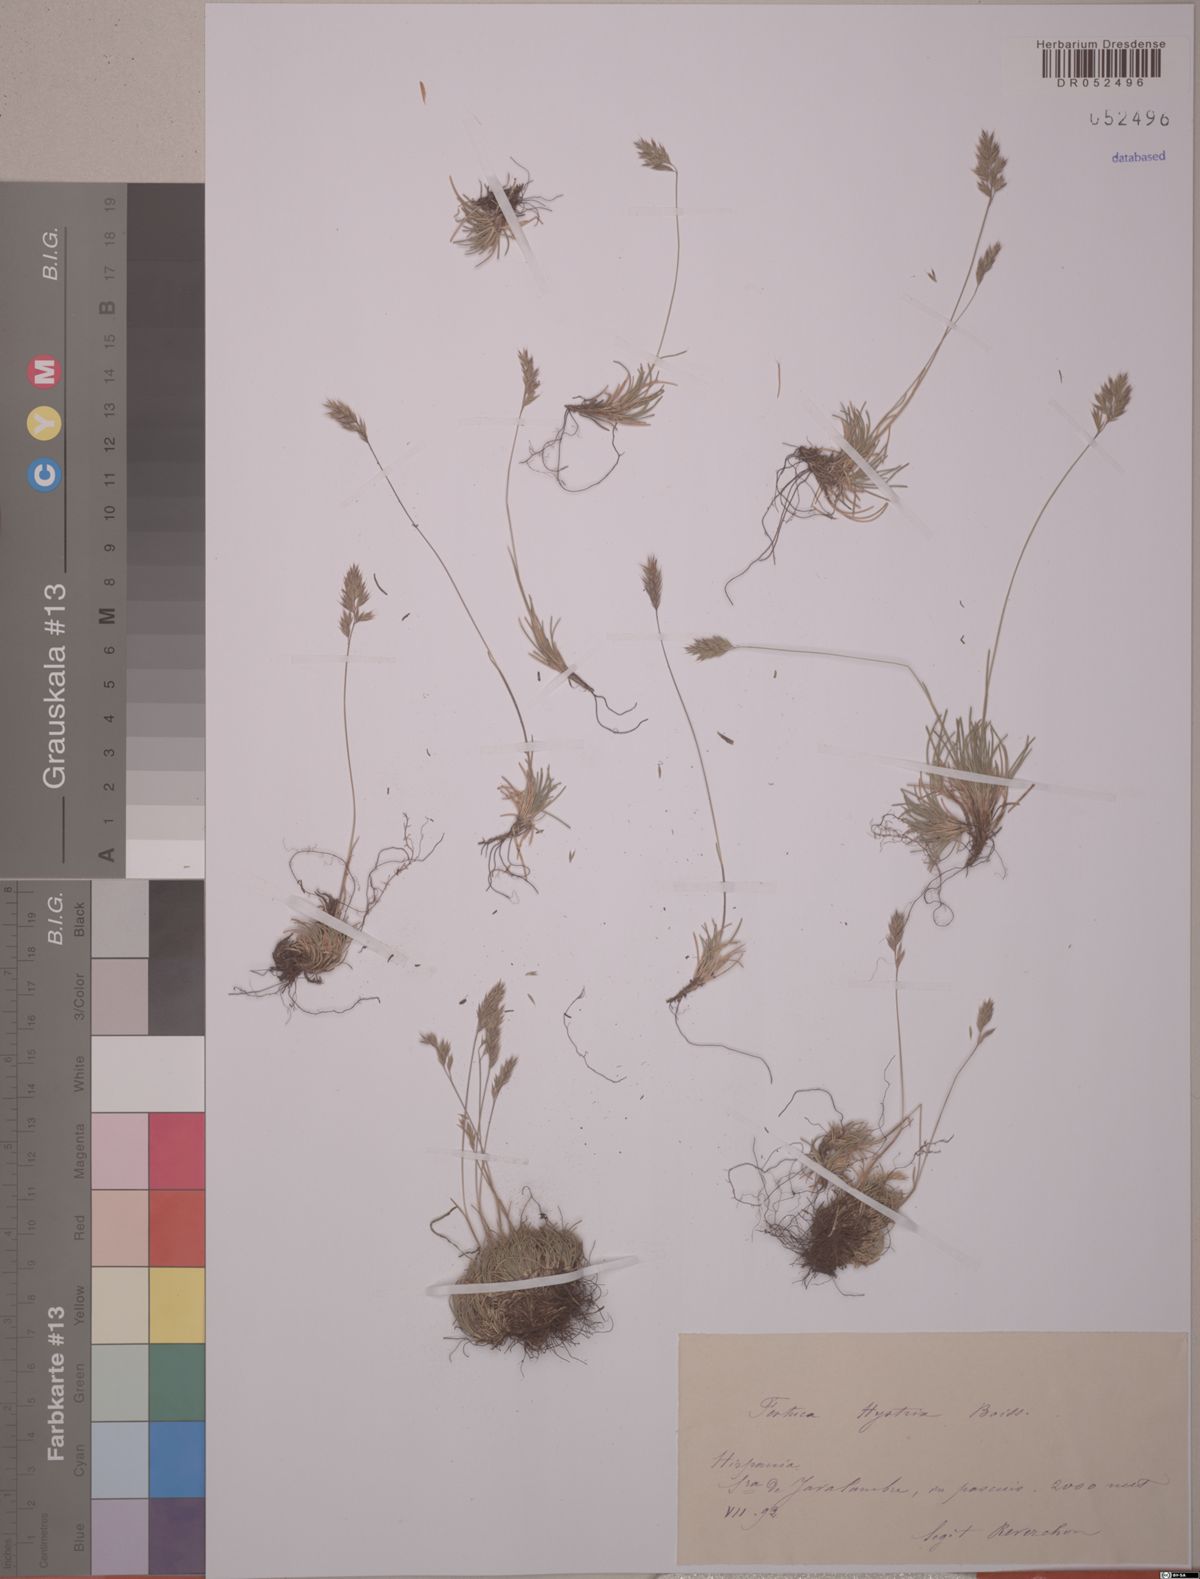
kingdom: Plantae
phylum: Tracheophyta
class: Liliopsida
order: Poales
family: Poaceae
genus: Festuca
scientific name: Festuca hystrix
